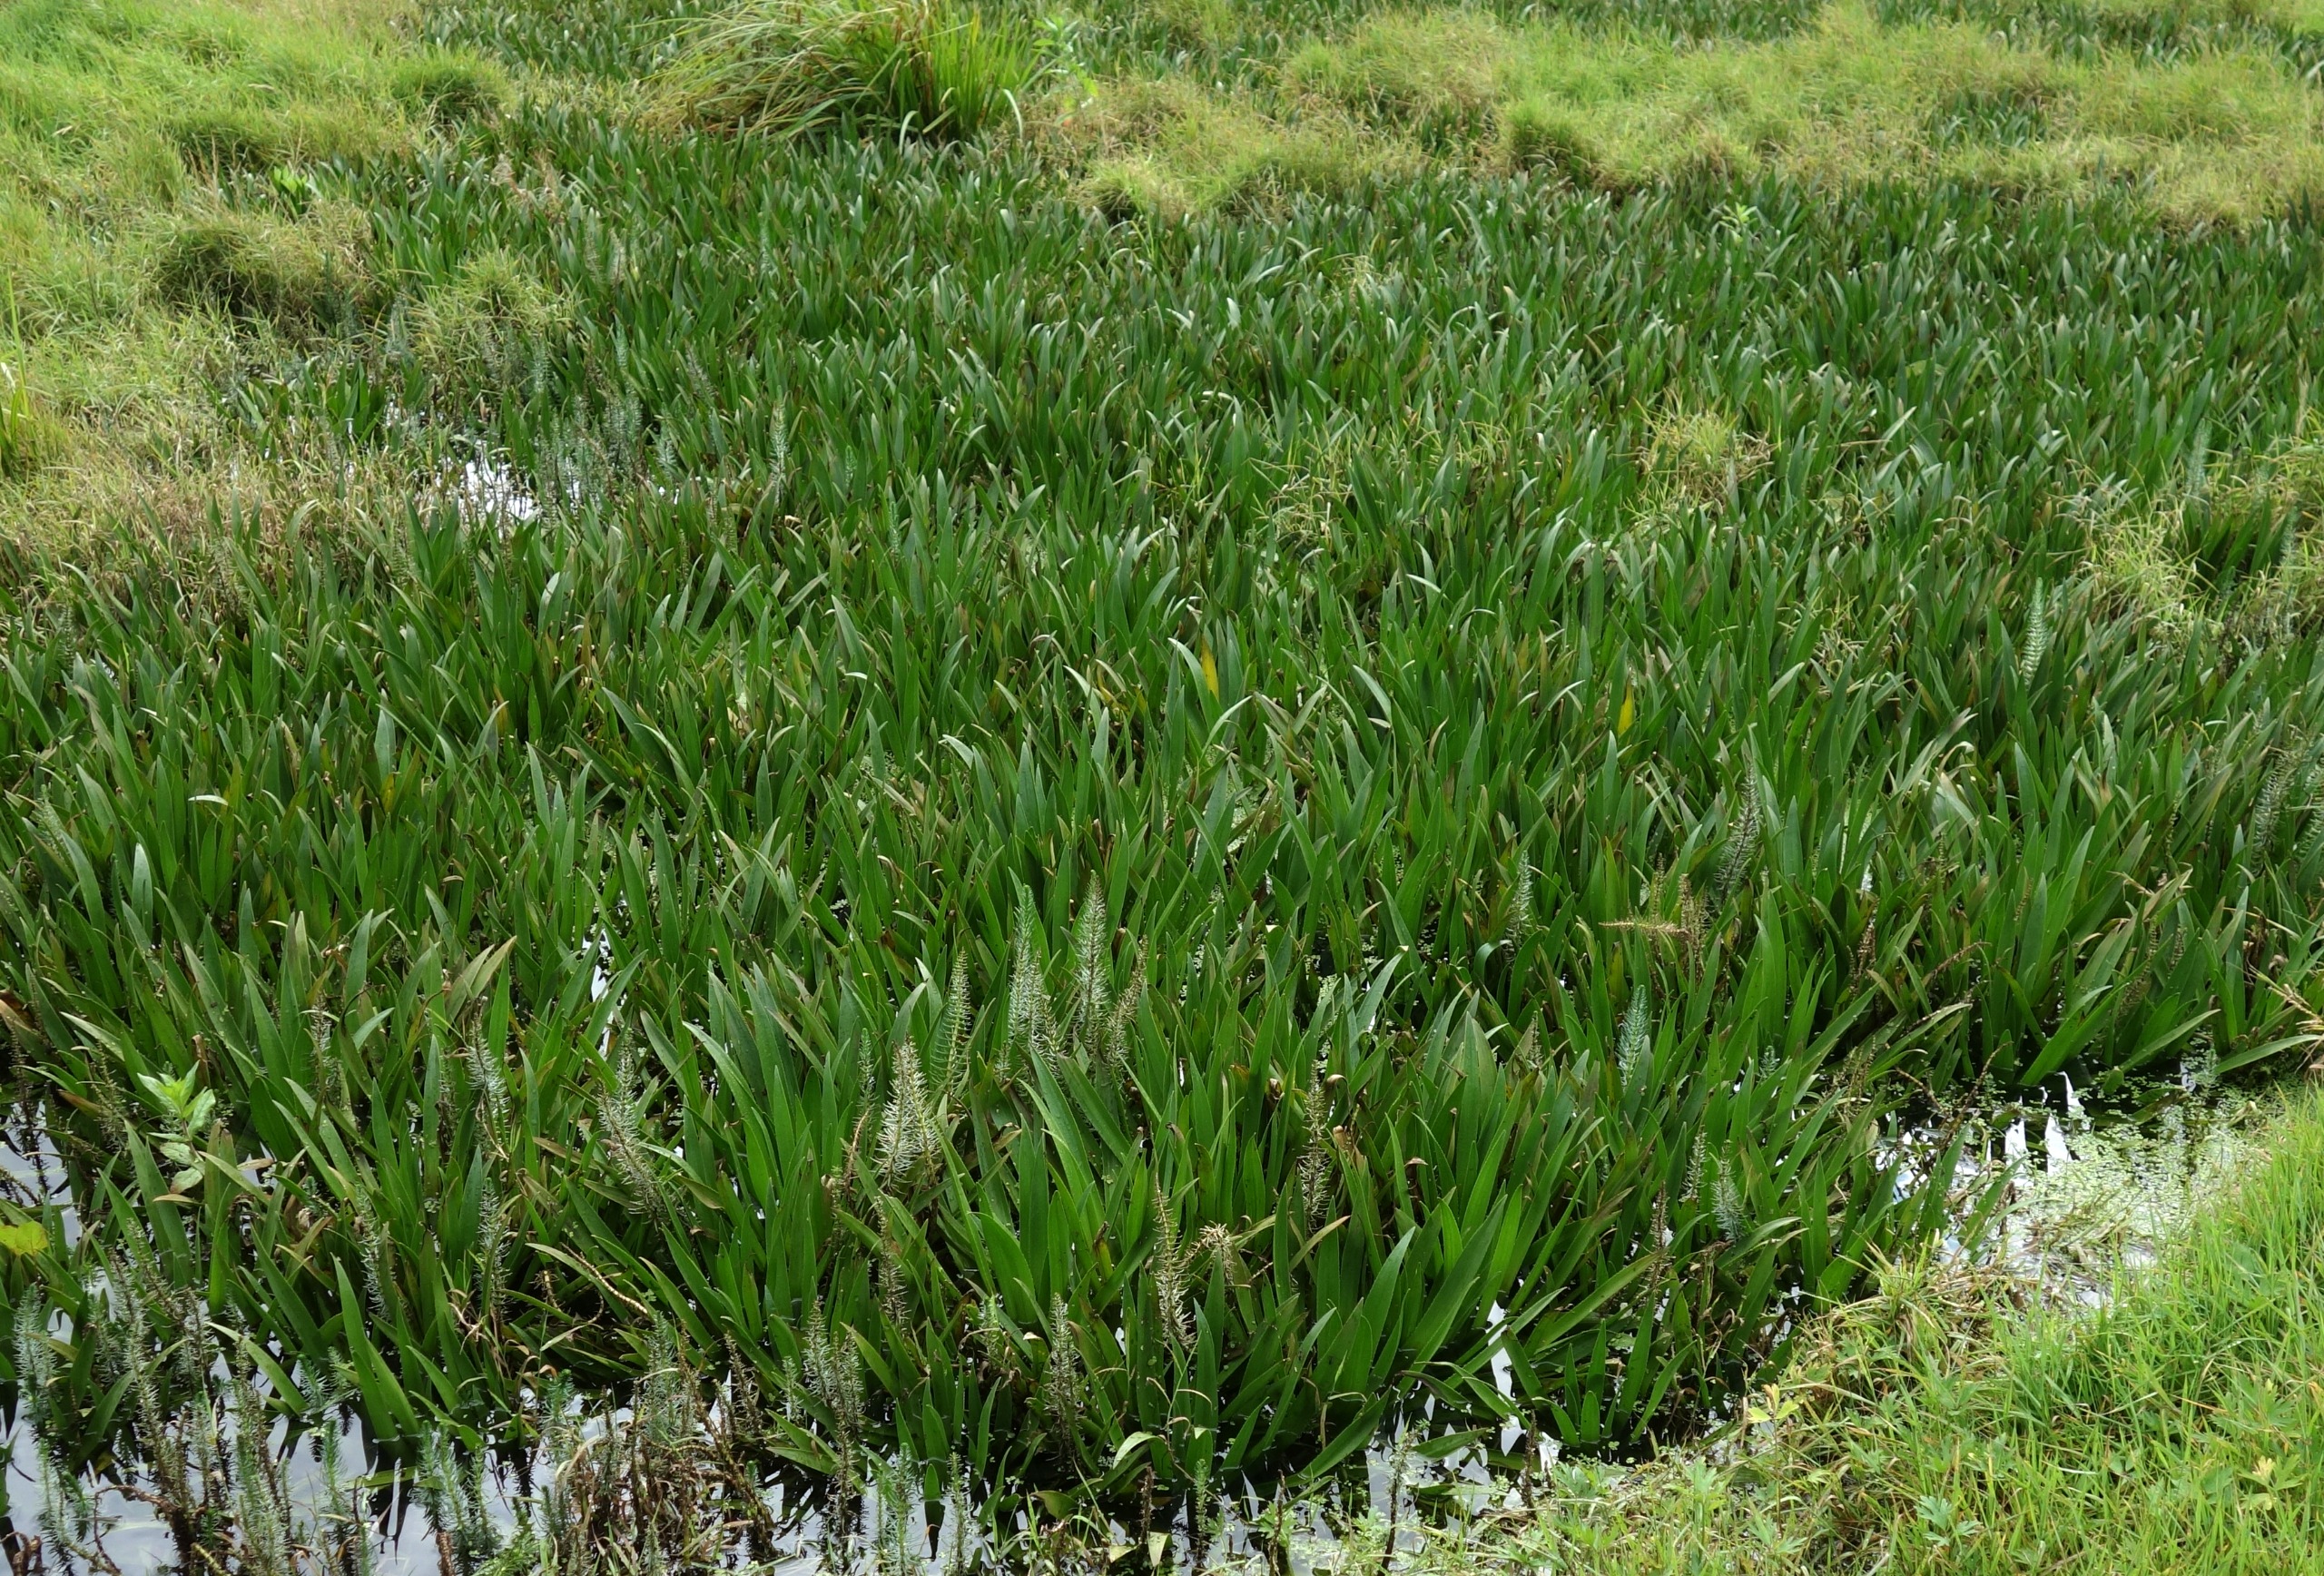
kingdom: Plantae
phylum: Tracheophyta
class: Liliopsida
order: Alismatales
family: Hydrocharitaceae
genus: Stratiotes
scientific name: Stratiotes aloides
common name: Krebseklo
